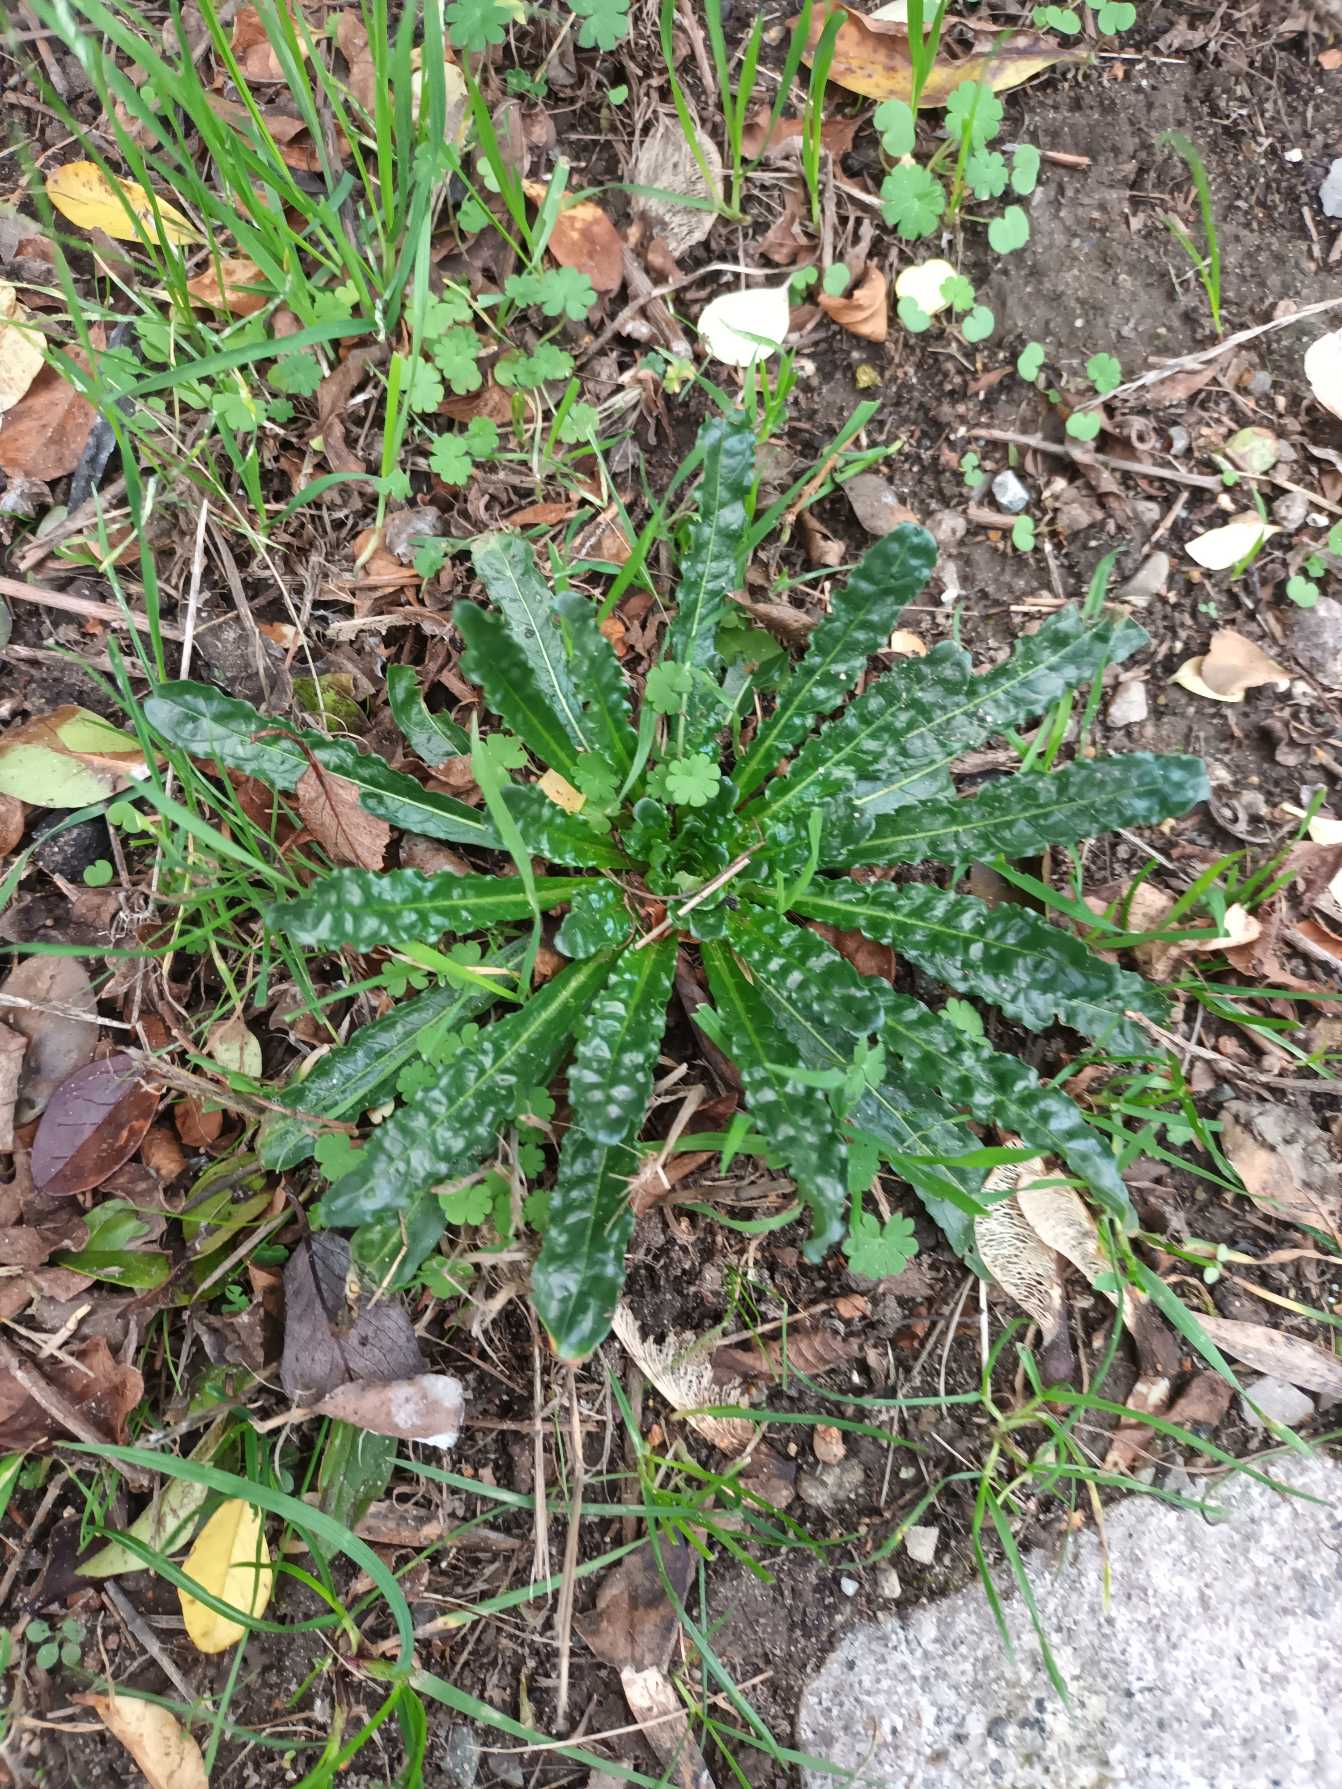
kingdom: Plantae
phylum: Tracheophyta
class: Magnoliopsida
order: Brassicales
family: Resedaceae
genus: Reseda
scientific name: Reseda luteola
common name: Farve-reseda
